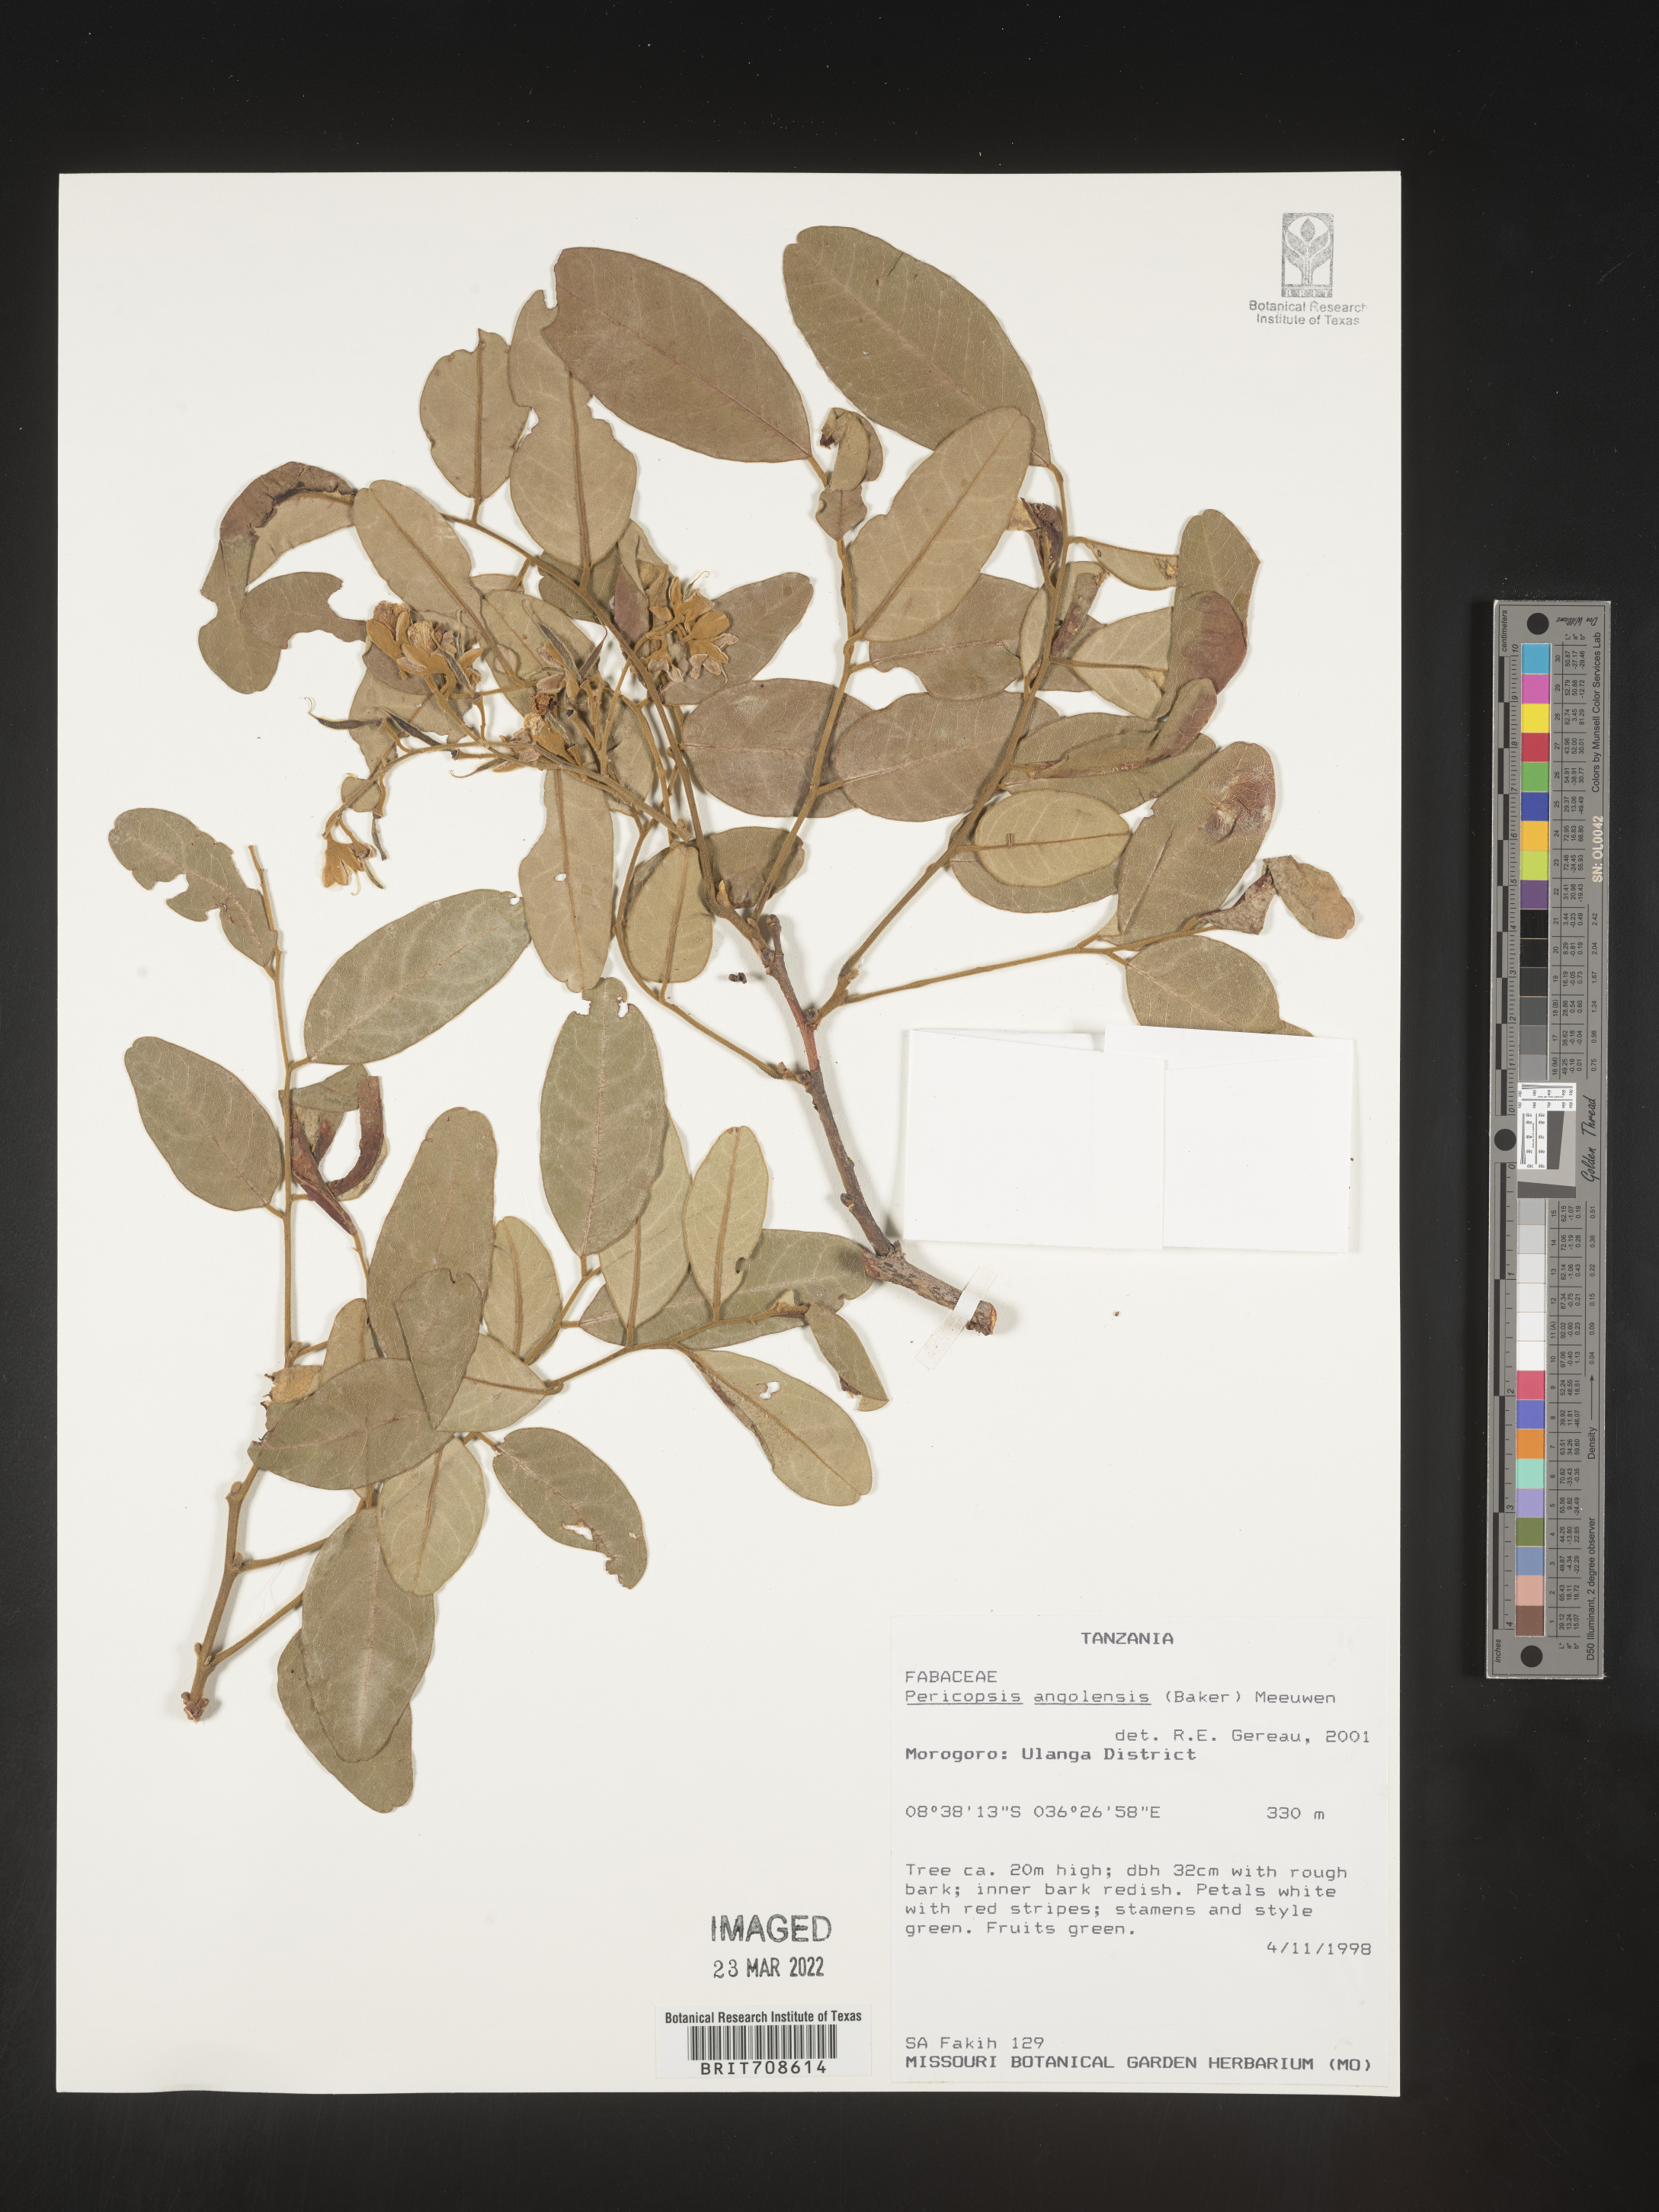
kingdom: Plantae
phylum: Tracheophyta
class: Magnoliopsida
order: Fabales
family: Fabaceae
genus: Pericopsis
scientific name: Pericopsis
